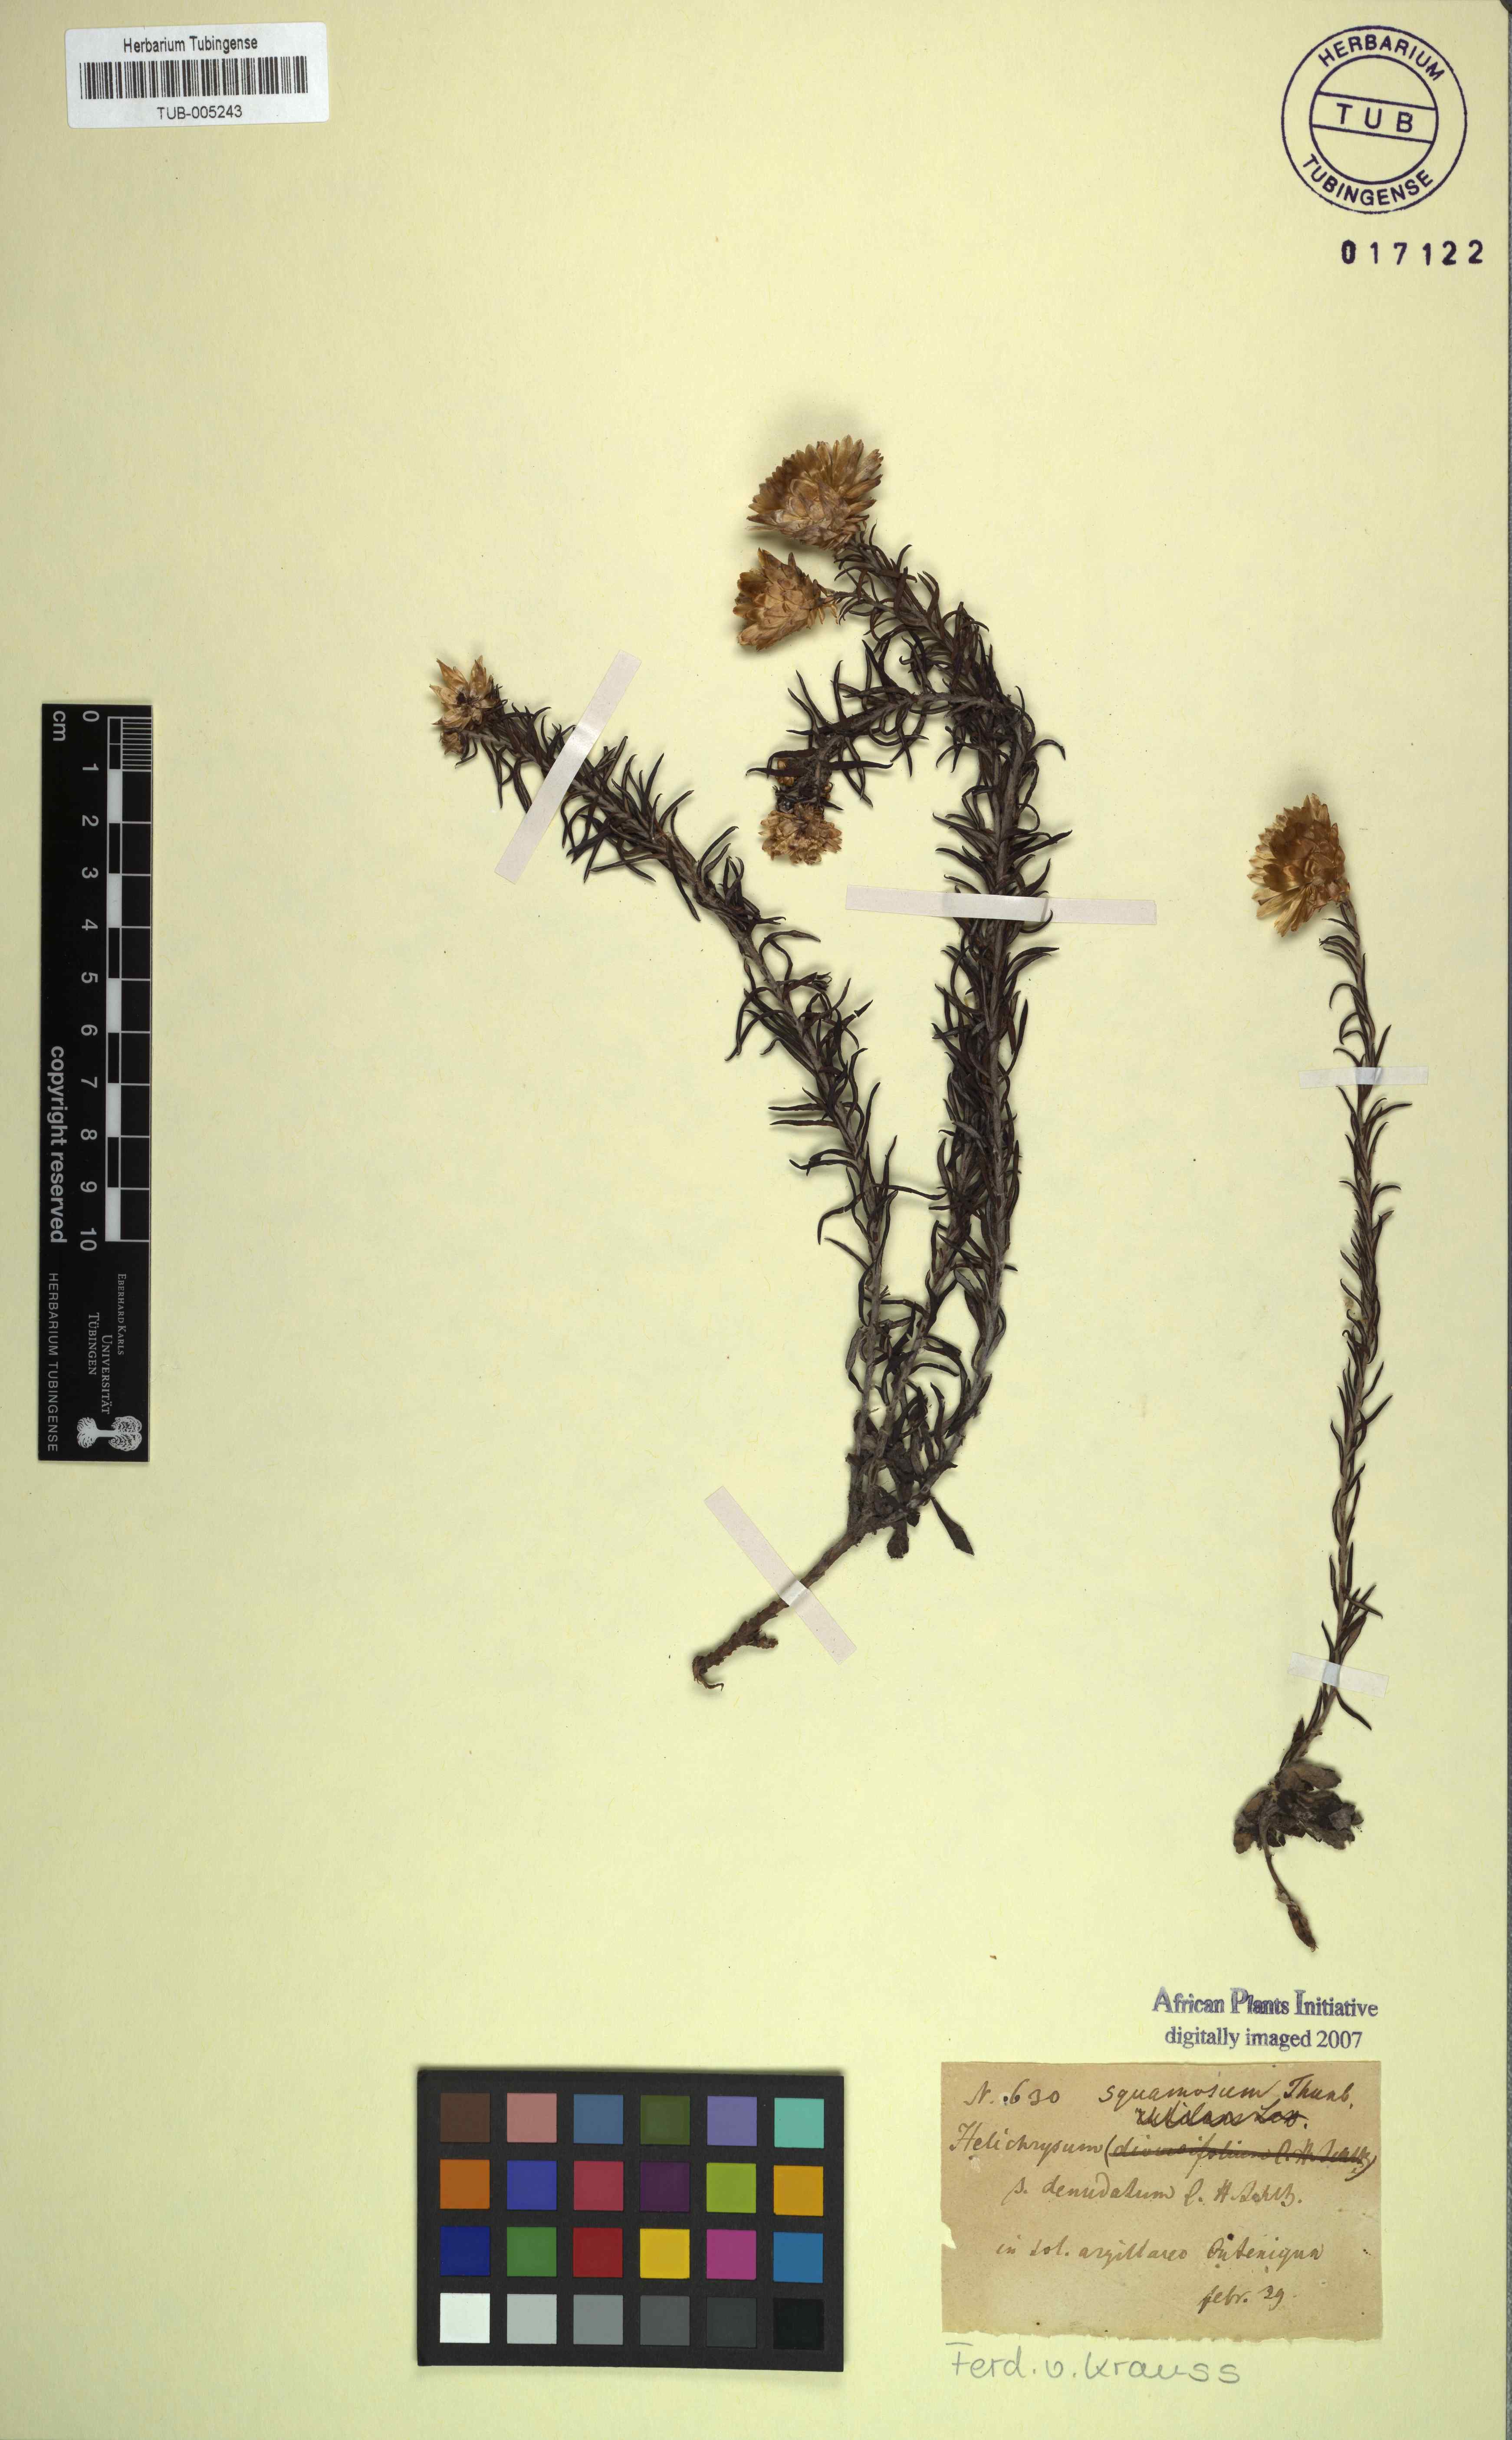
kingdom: Plantae
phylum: Tracheophyta
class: Magnoliopsida
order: Asterales
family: Asteraceae
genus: Edmondia
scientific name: Edmondia pinifolia
